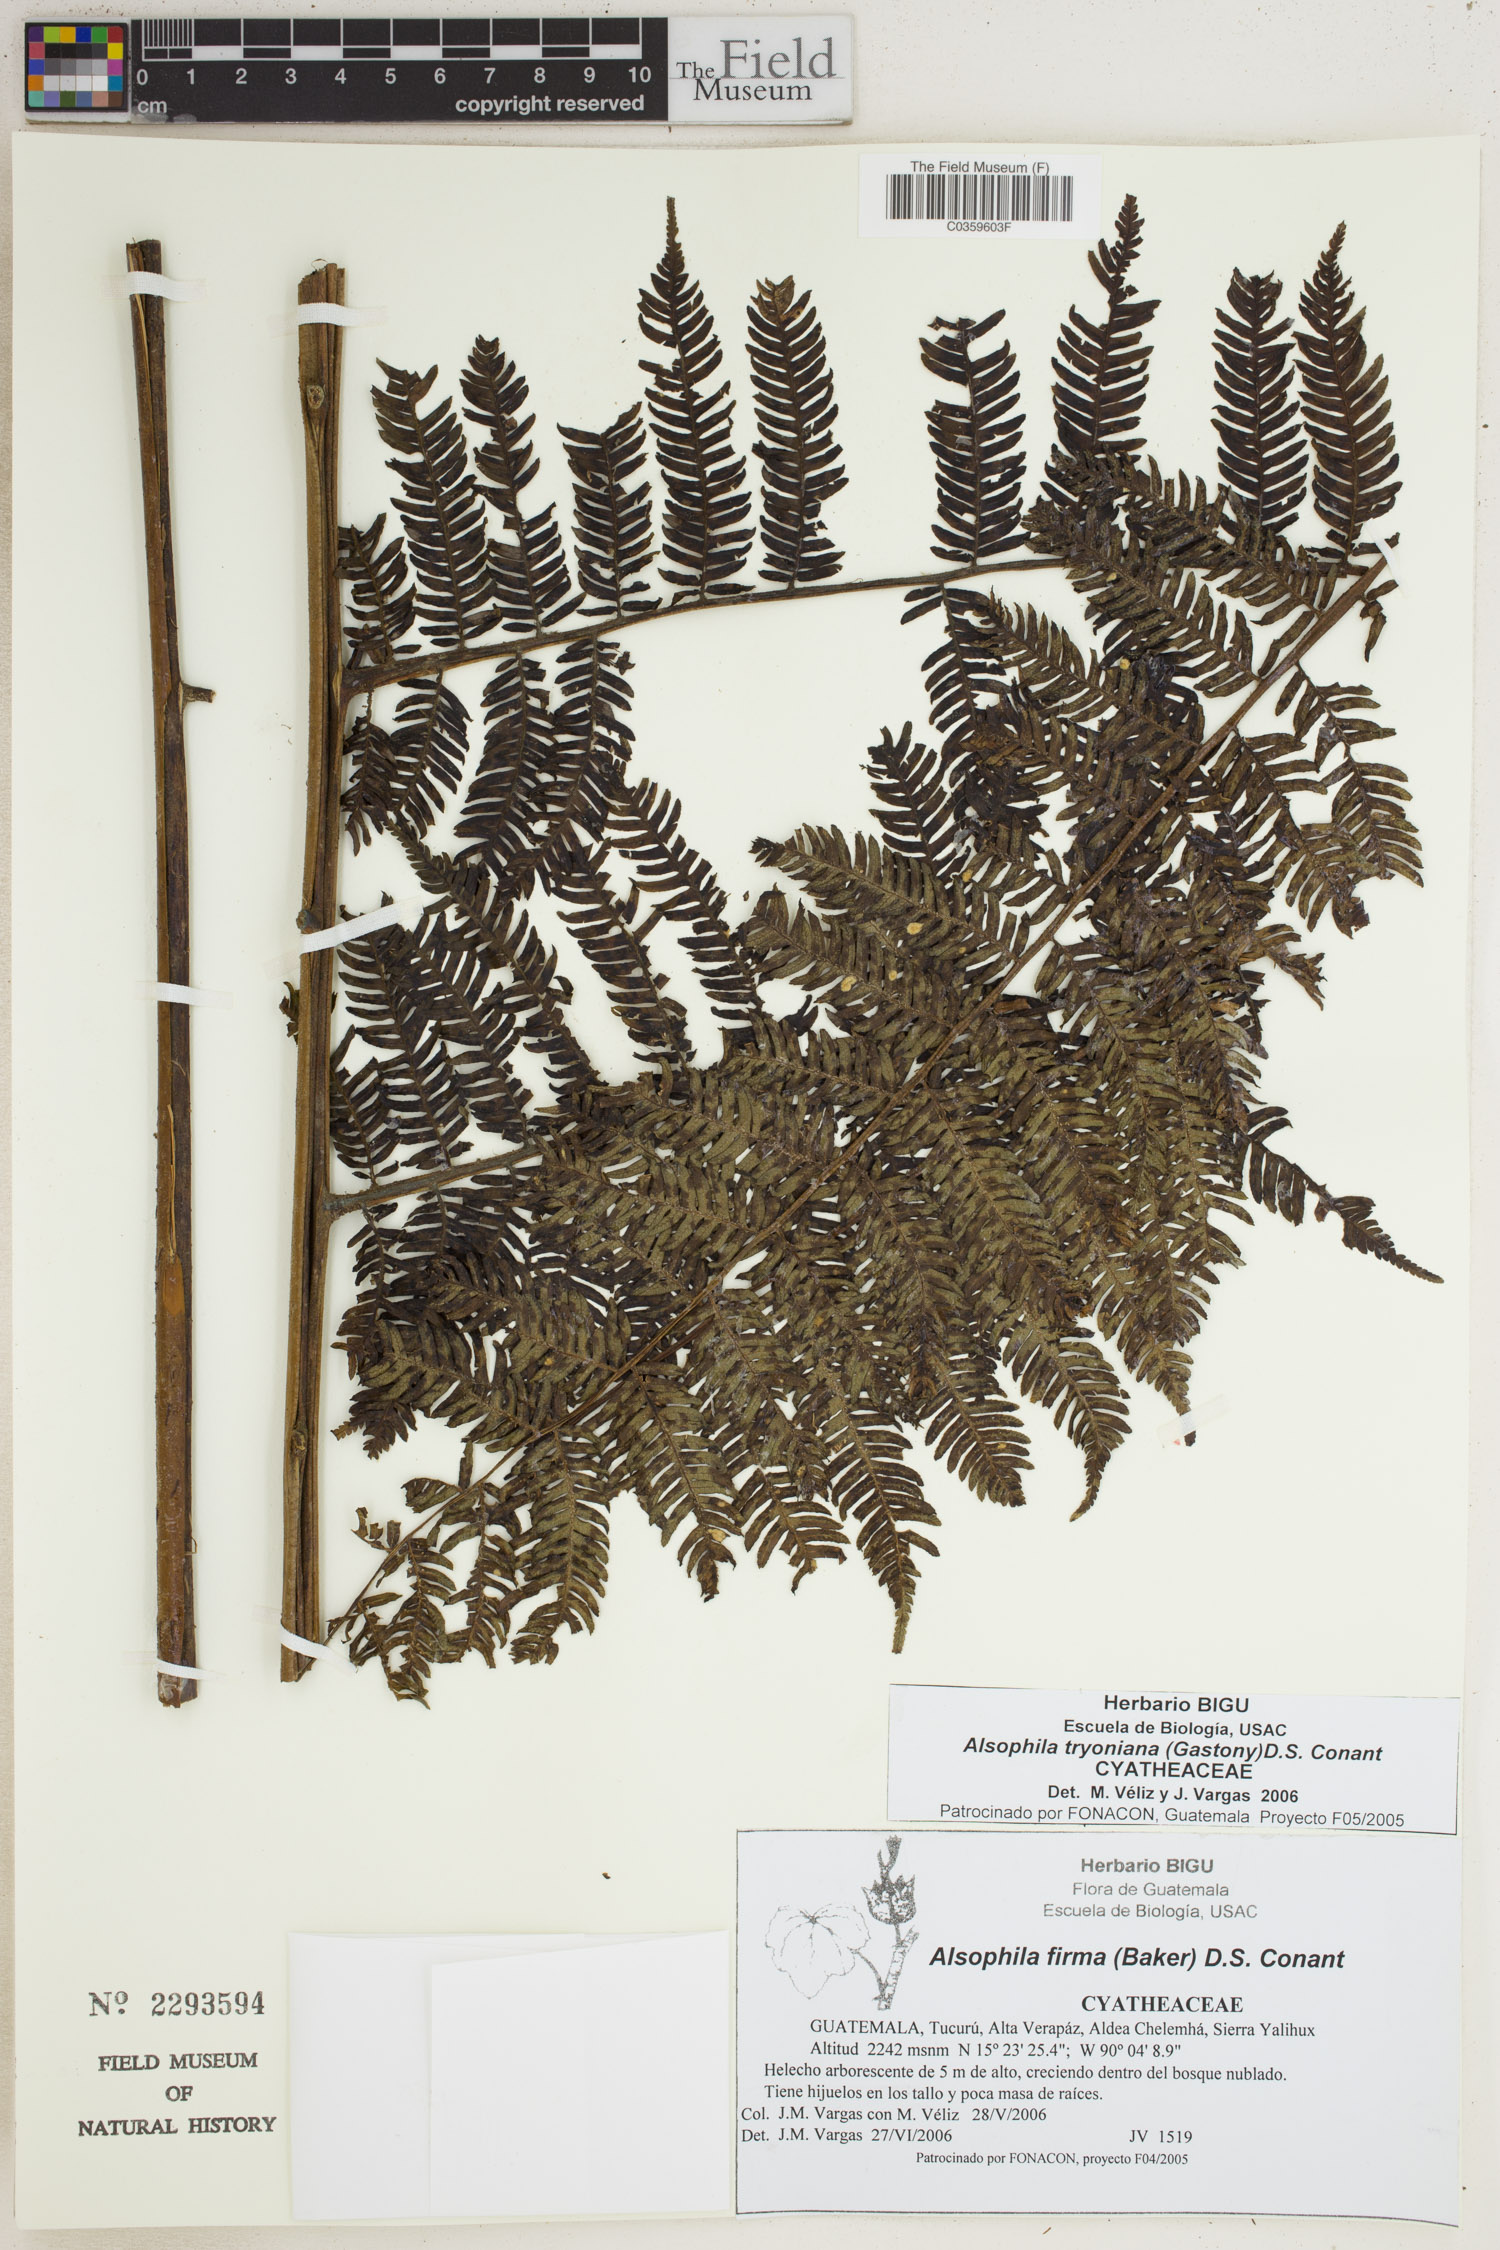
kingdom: Plantae
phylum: Tracheophyta
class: Polypodiopsida
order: Cyatheales
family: Cyatheaceae
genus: Alsophila
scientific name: Alsophila tryoniana
